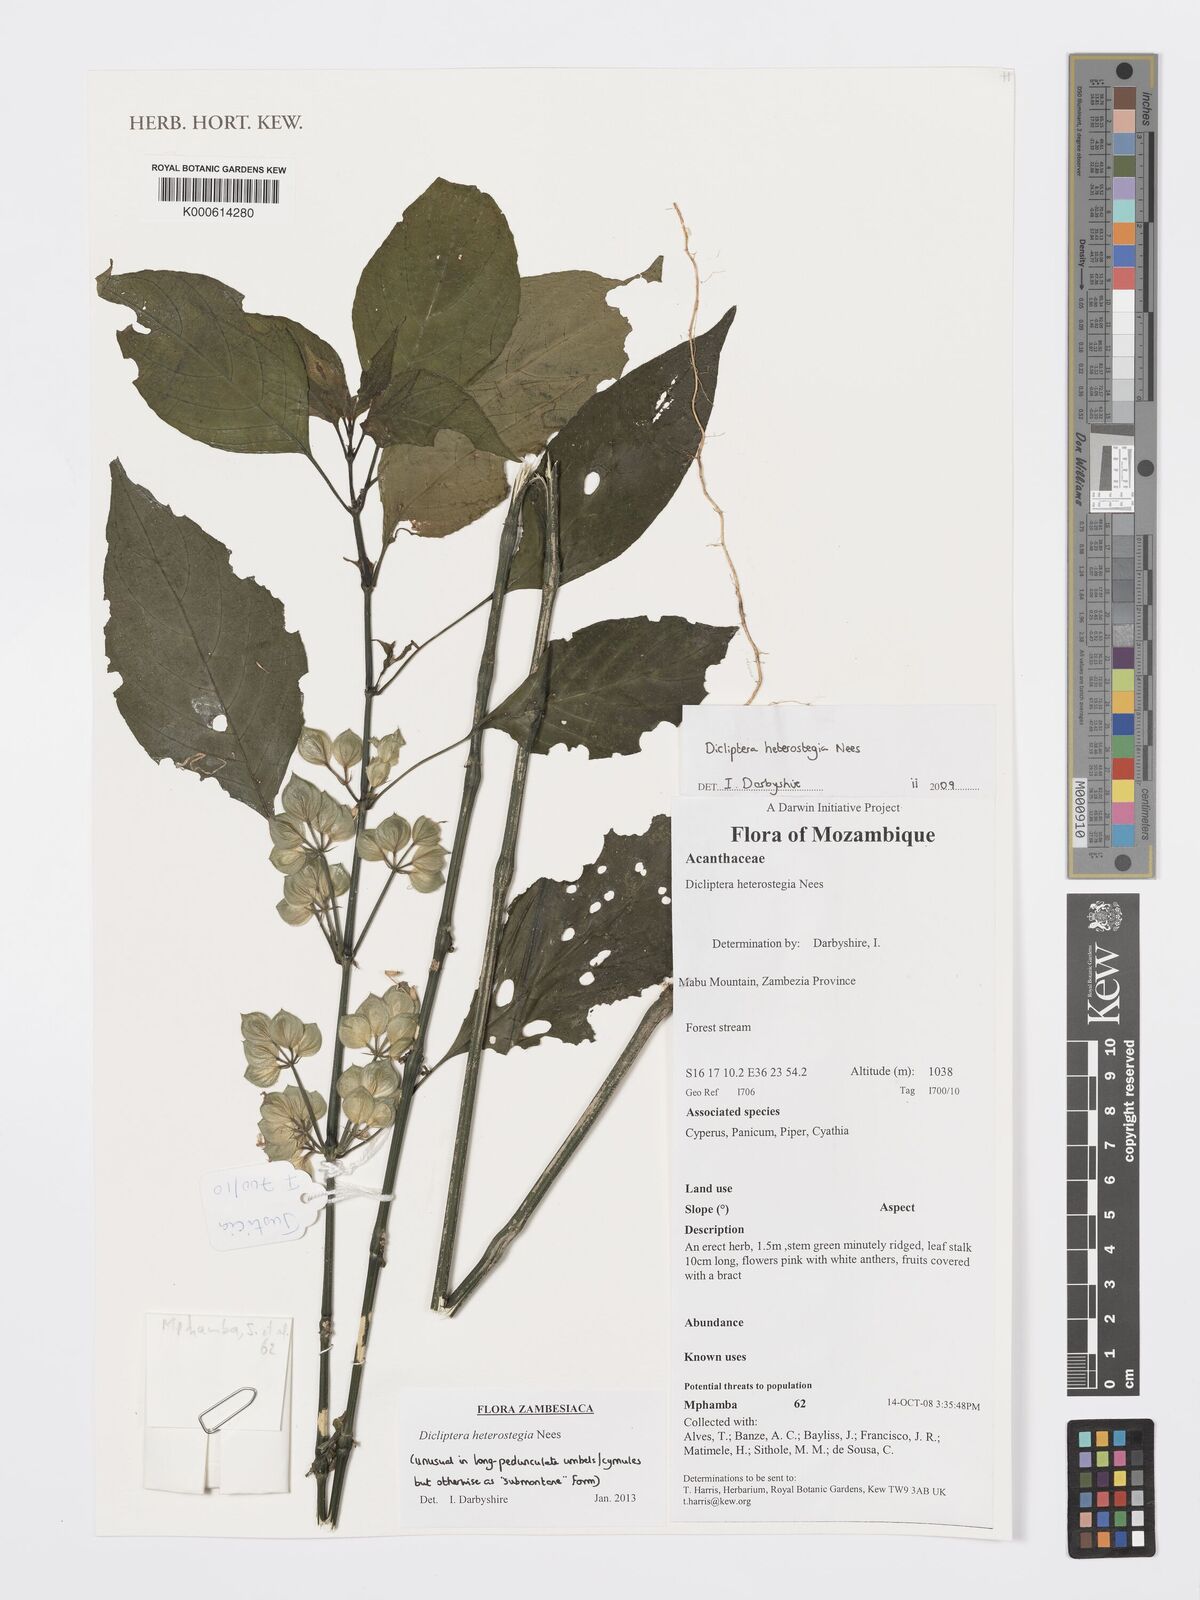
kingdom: Plantae
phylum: Tracheophyta
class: Magnoliopsida
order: Lamiales
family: Acanthaceae
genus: Dicliptera
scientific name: Dicliptera
